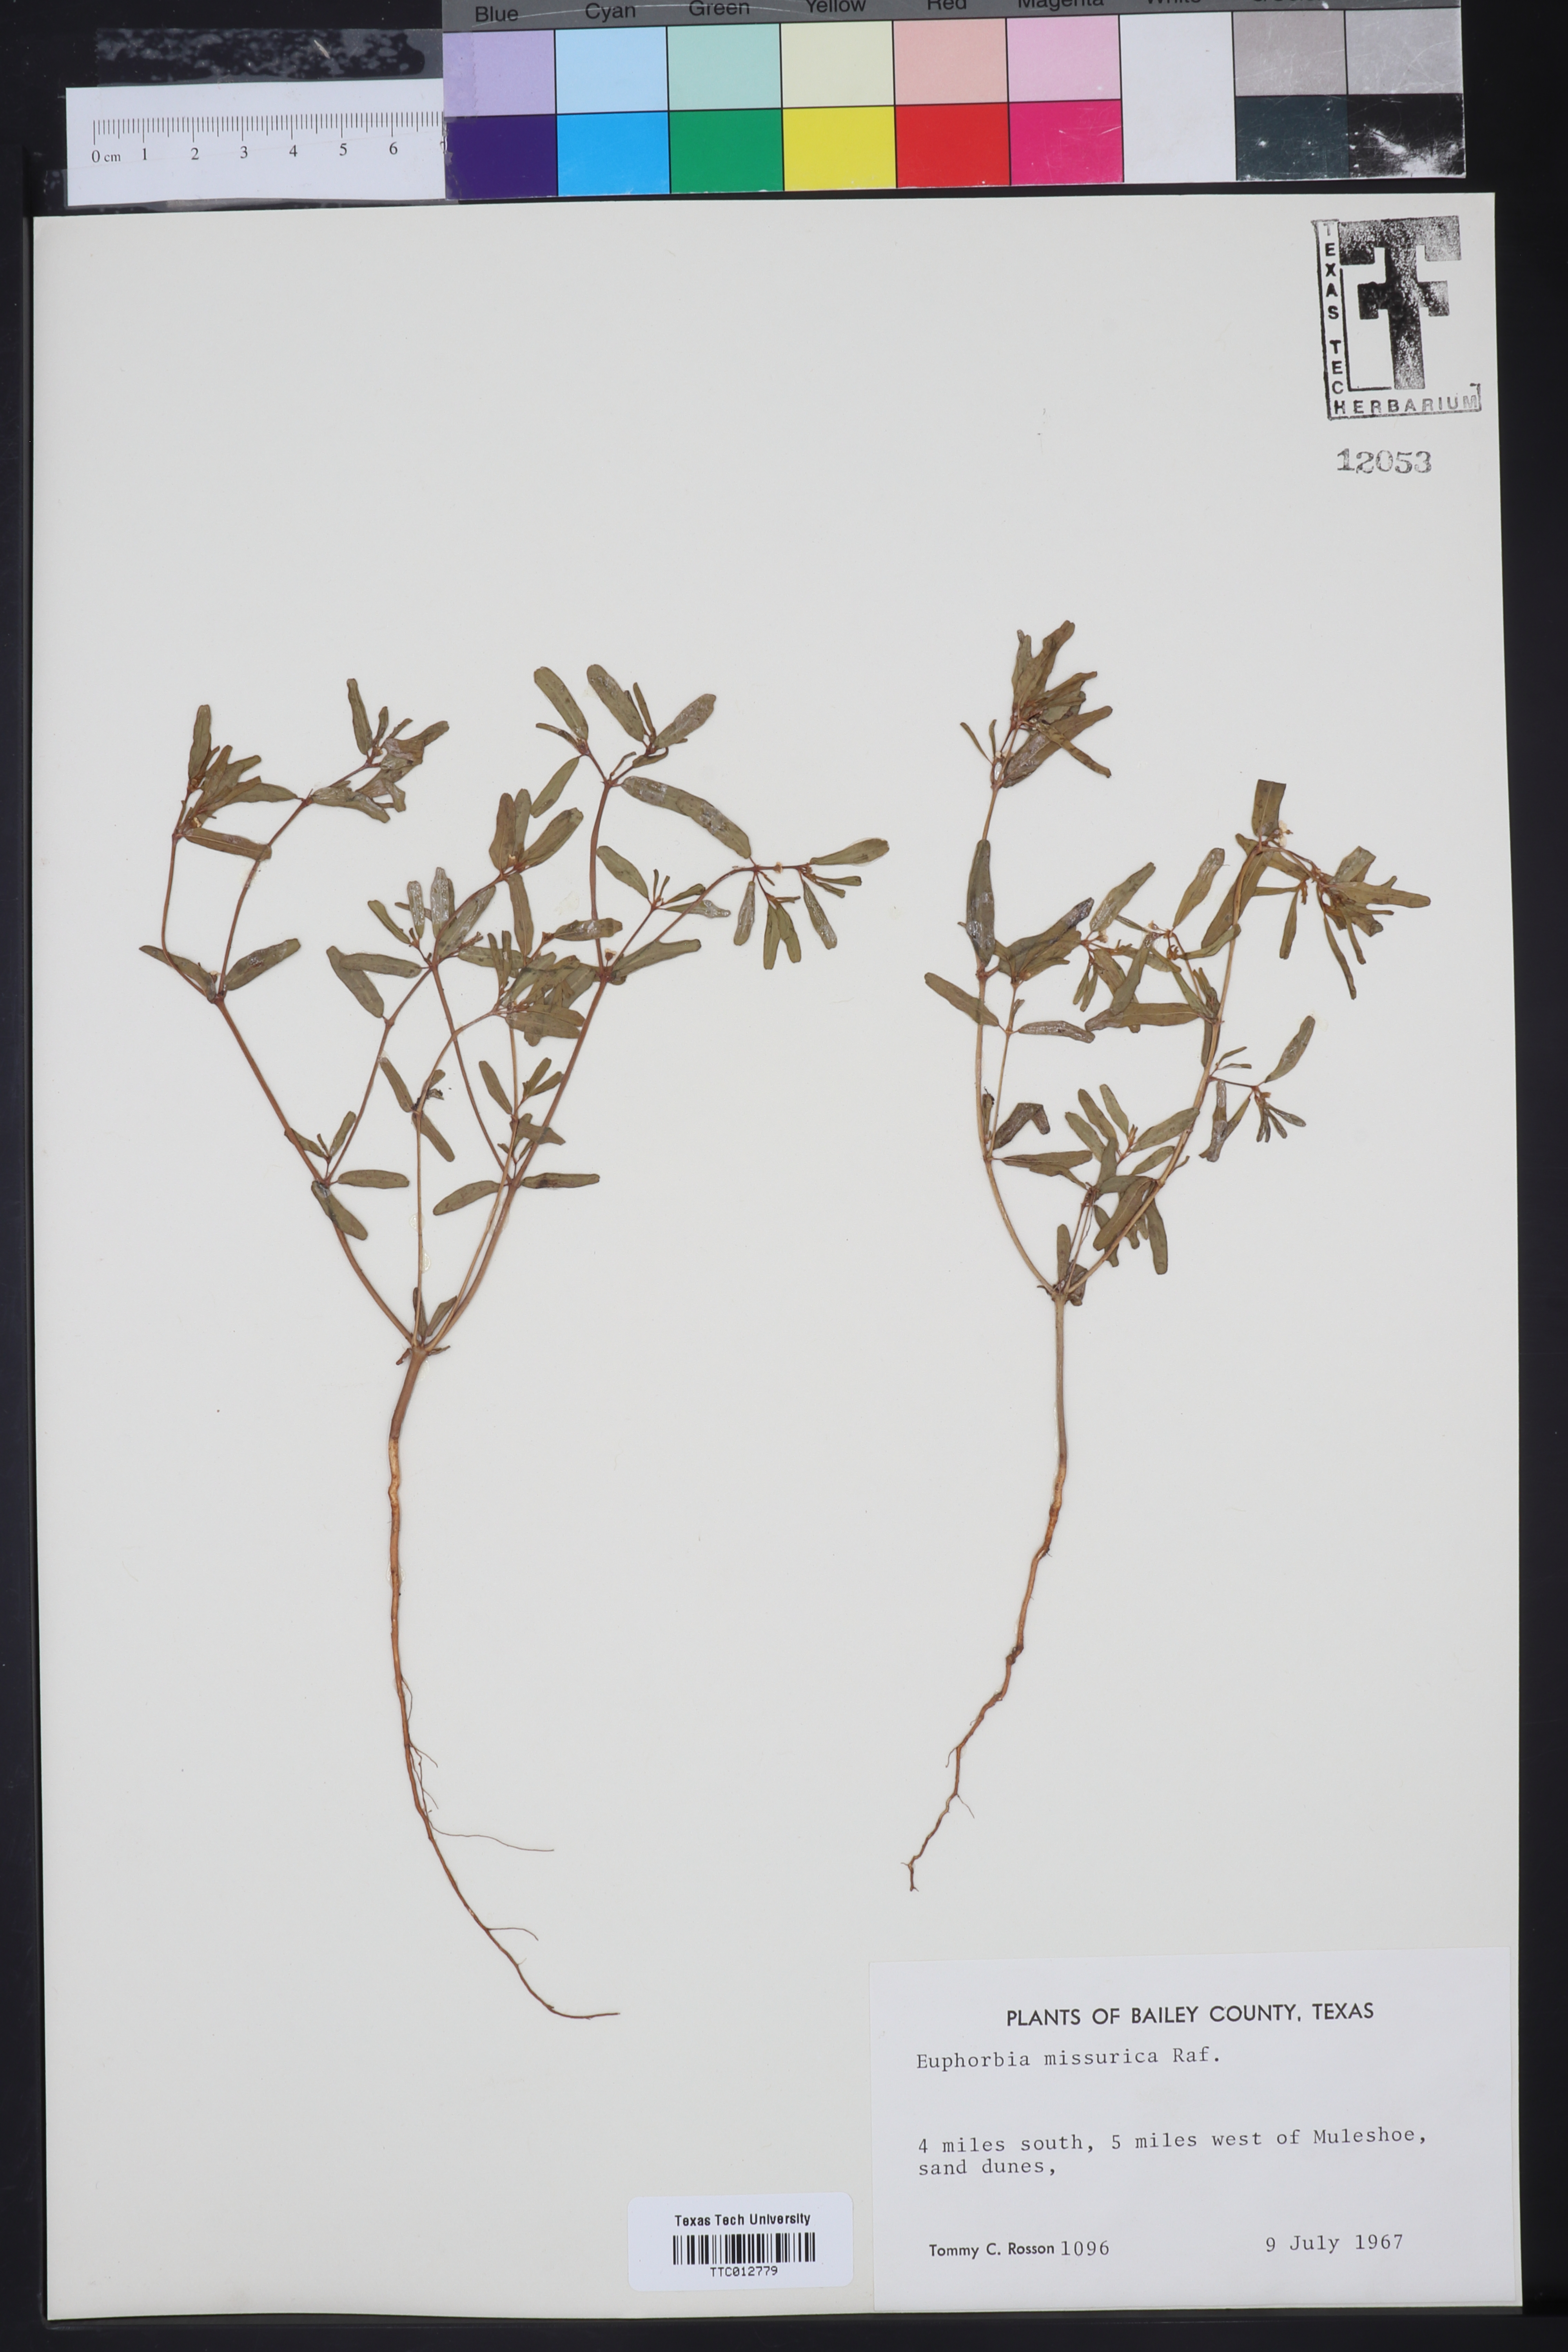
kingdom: Plantae
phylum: Tracheophyta
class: Magnoliopsida
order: Malpighiales
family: Euphorbiaceae
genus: Euphorbia
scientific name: Euphorbia missurica
